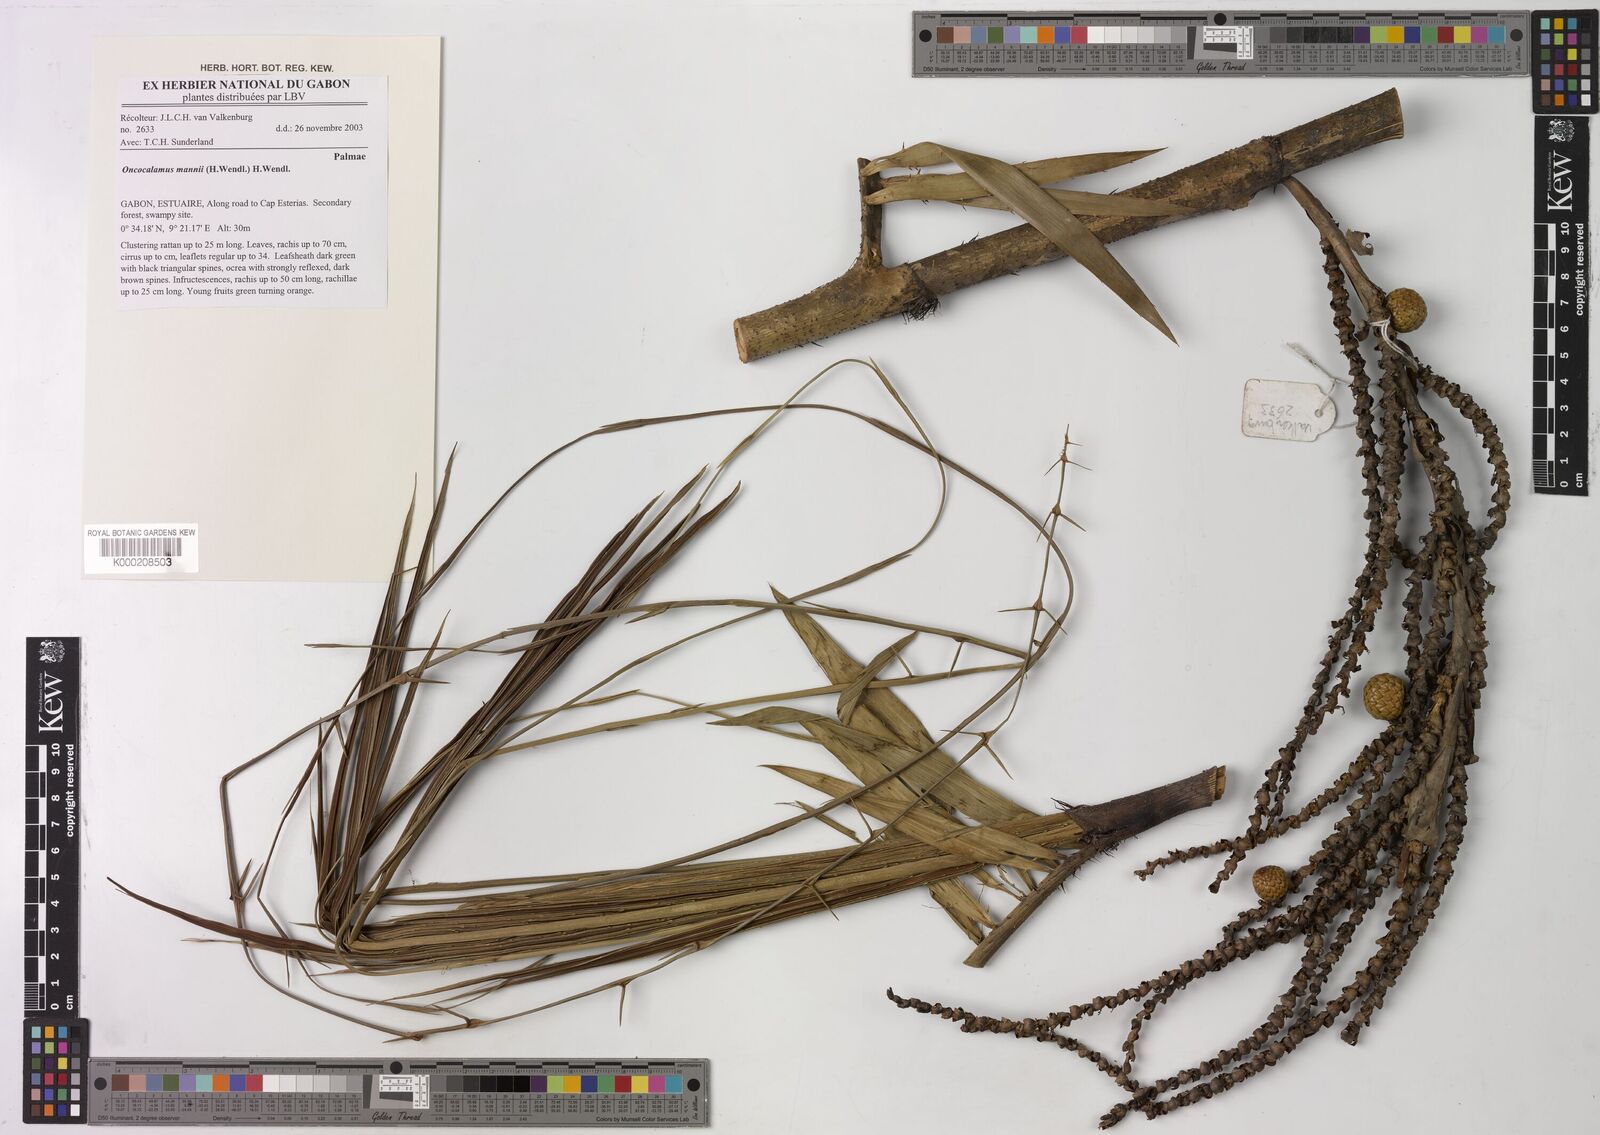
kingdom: Plantae
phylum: Tracheophyta
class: Liliopsida
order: Arecales
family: Arecaceae
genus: Oncocalamus
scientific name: Oncocalamus mannii
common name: Rattan
